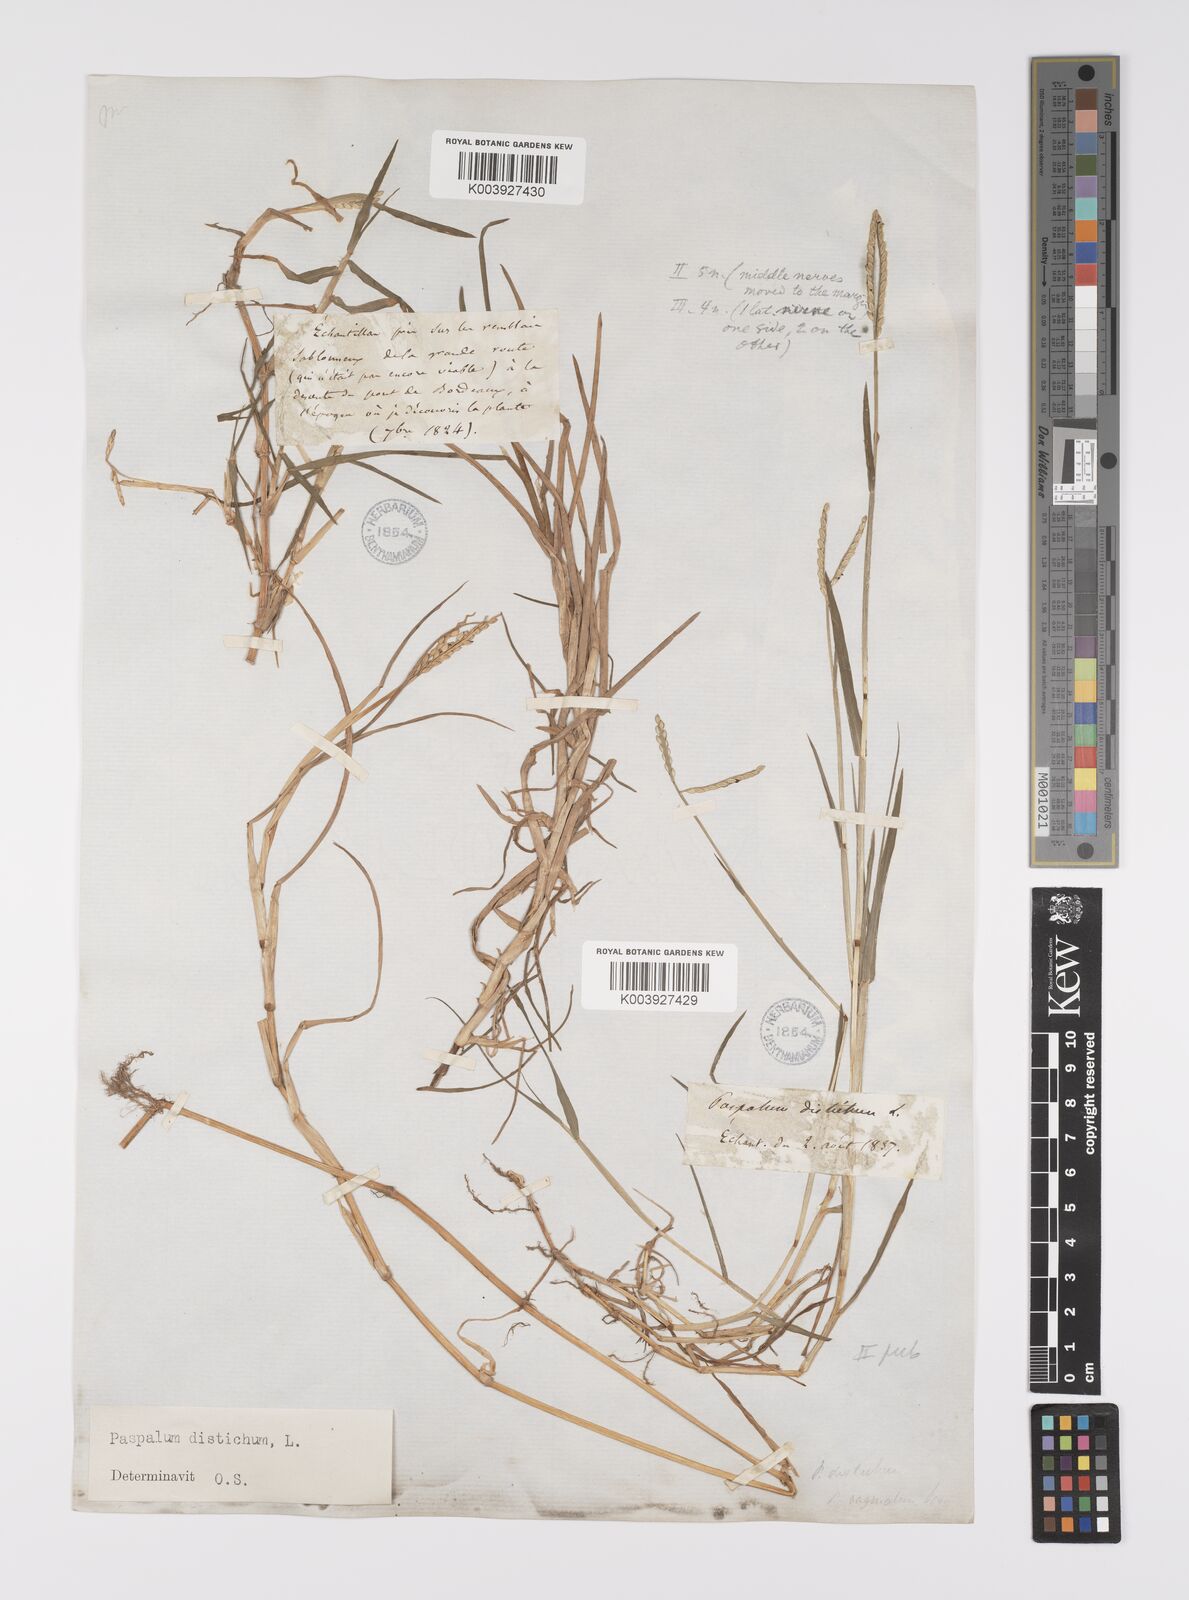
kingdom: Plantae
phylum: Tracheophyta
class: Liliopsida
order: Poales
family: Poaceae
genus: Paspalum
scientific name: Paspalum distichum
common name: Knotgrass
